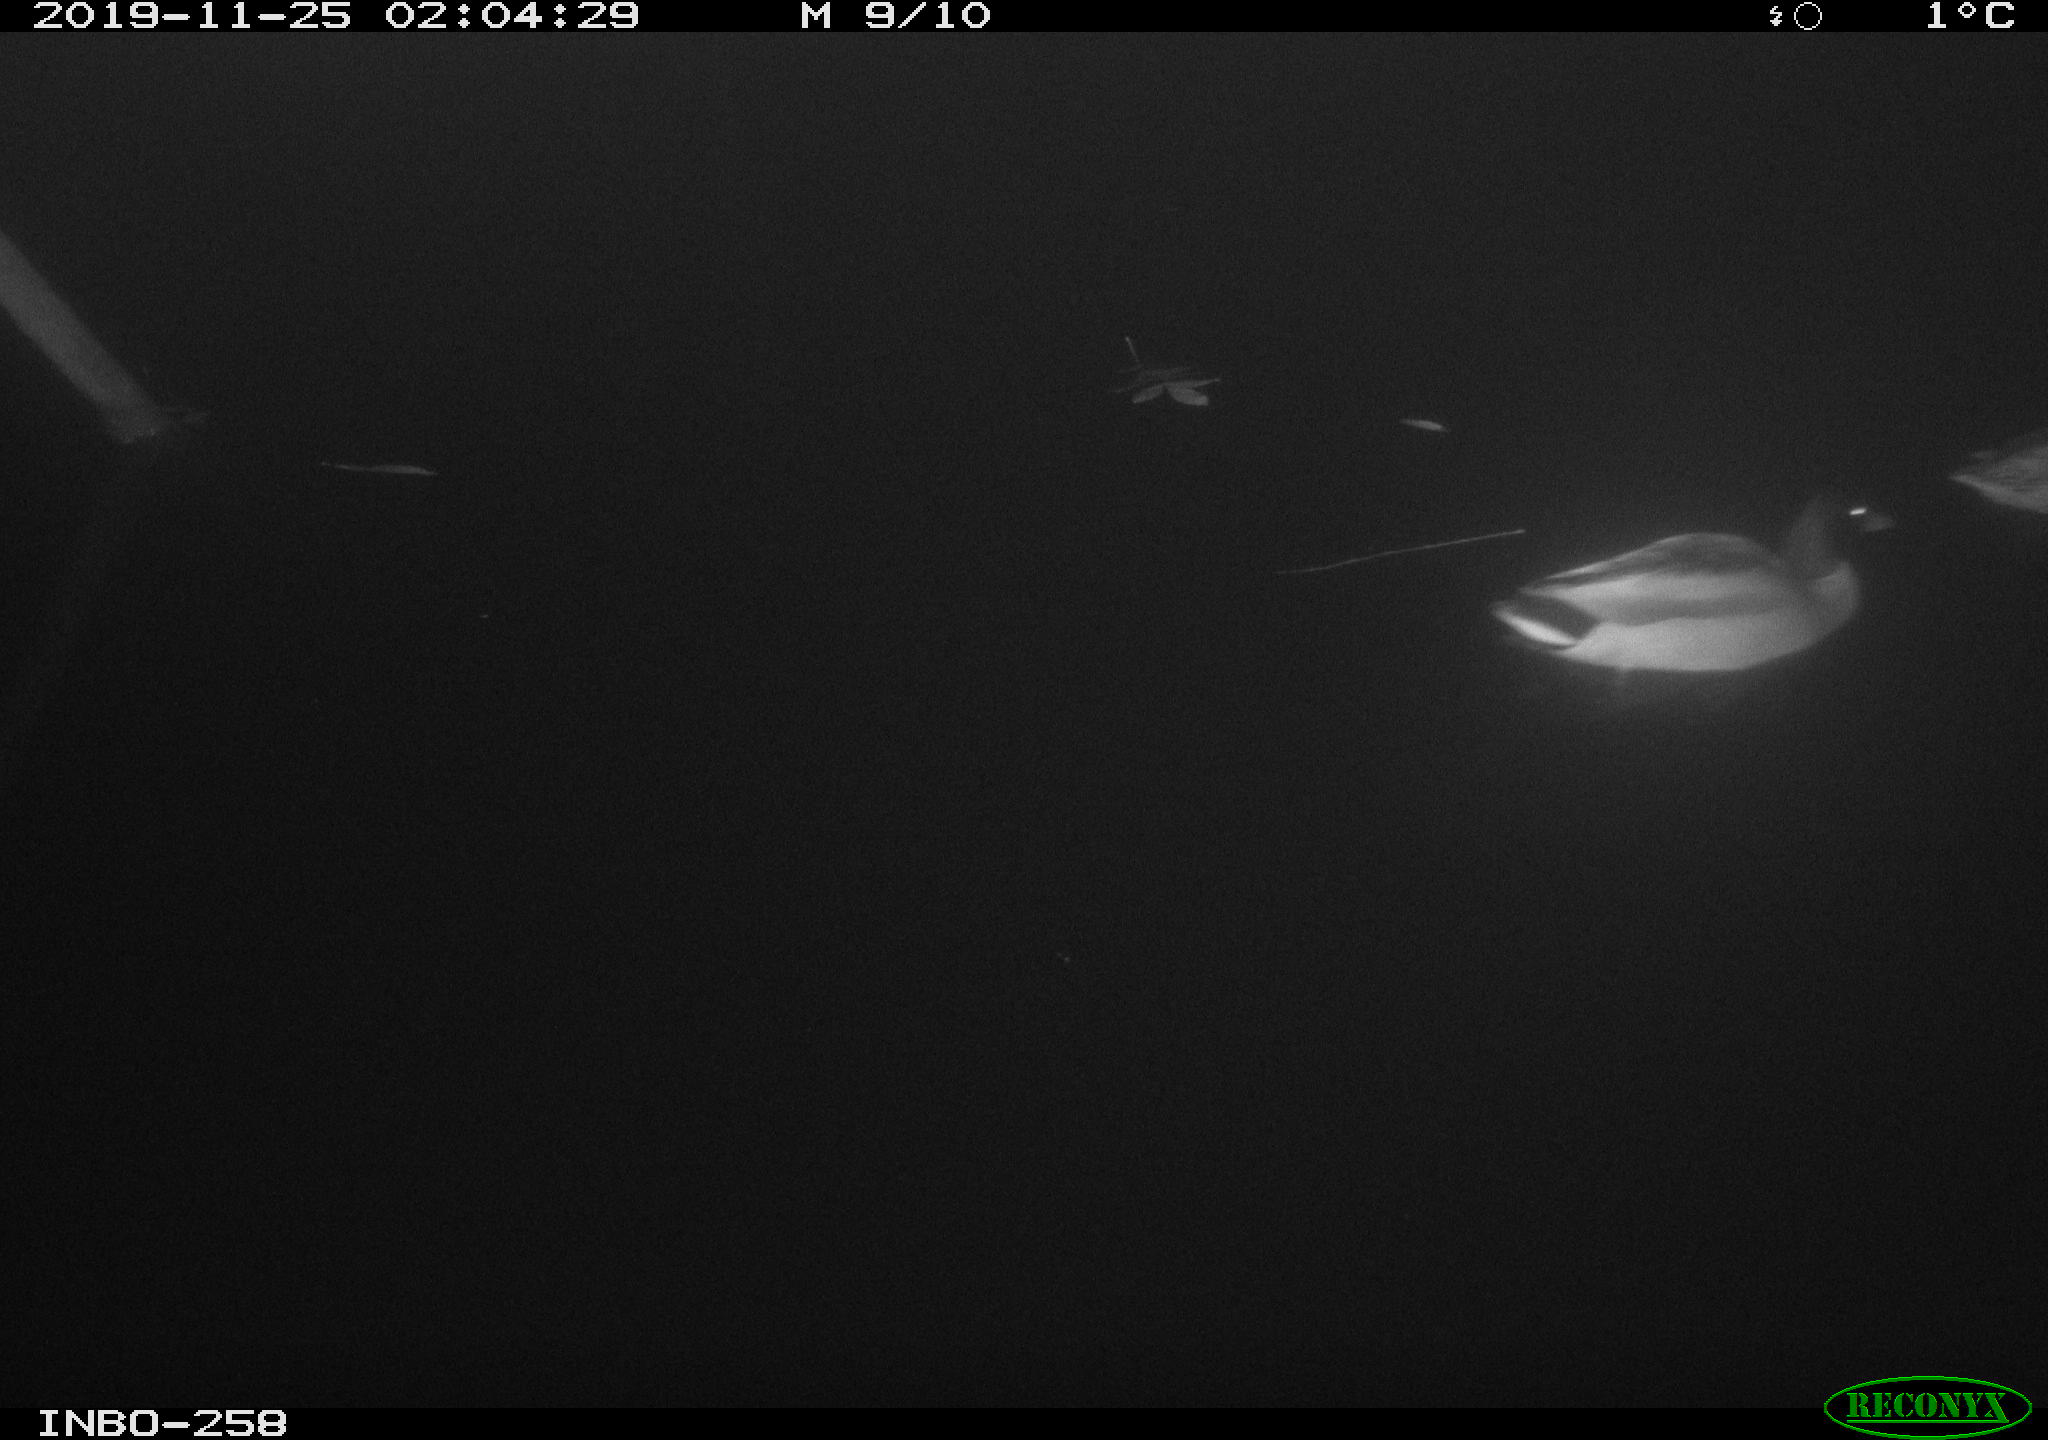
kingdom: Animalia
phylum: Chordata
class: Aves
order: Anseriformes
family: Anatidae
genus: Anas
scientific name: Anas platyrhynchos
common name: Mallard
